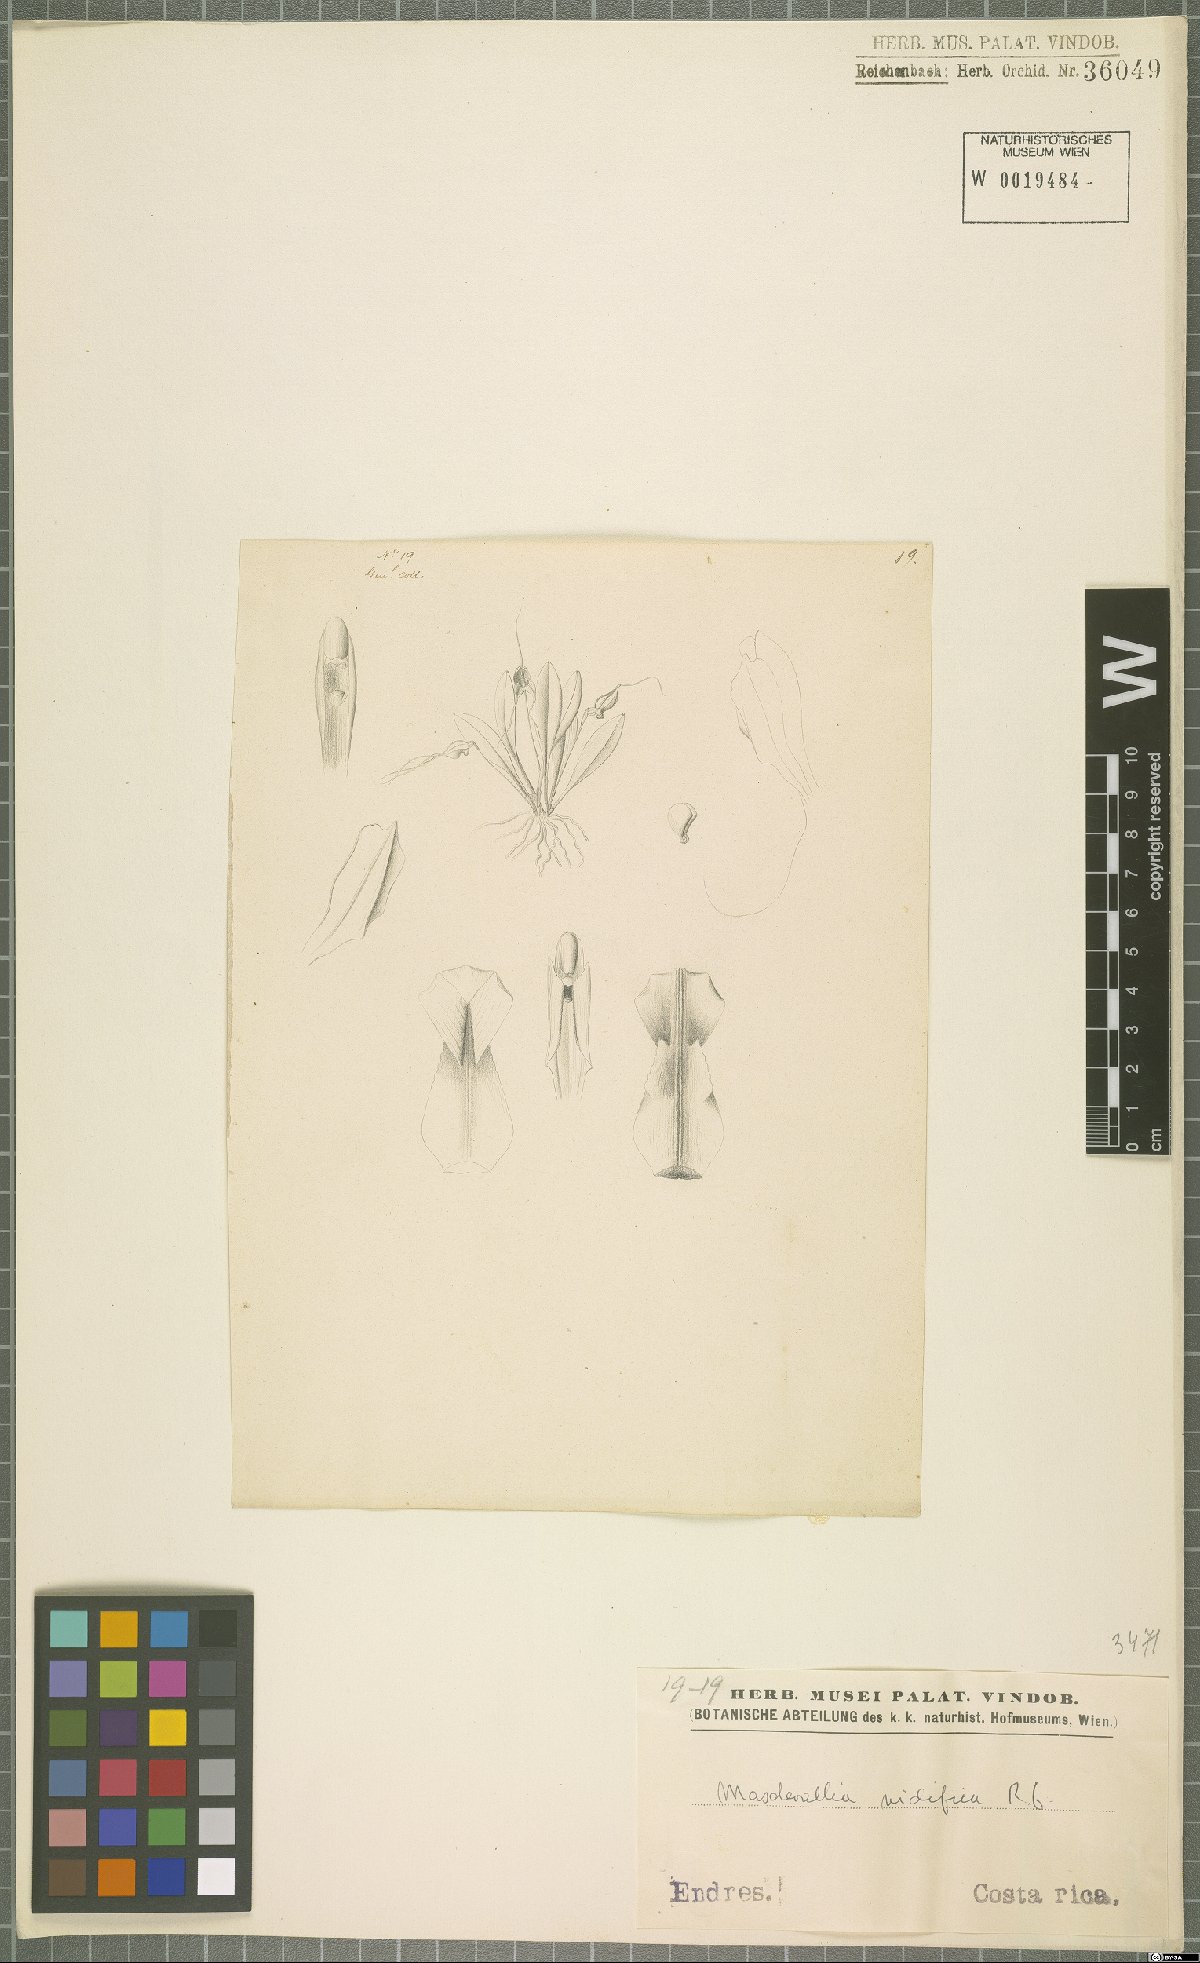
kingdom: Plantae
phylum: Tracheophyta
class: Liliopsida
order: Asparagales
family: Orchidaceae
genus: Masdevallia
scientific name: Masdevallia nidifica
